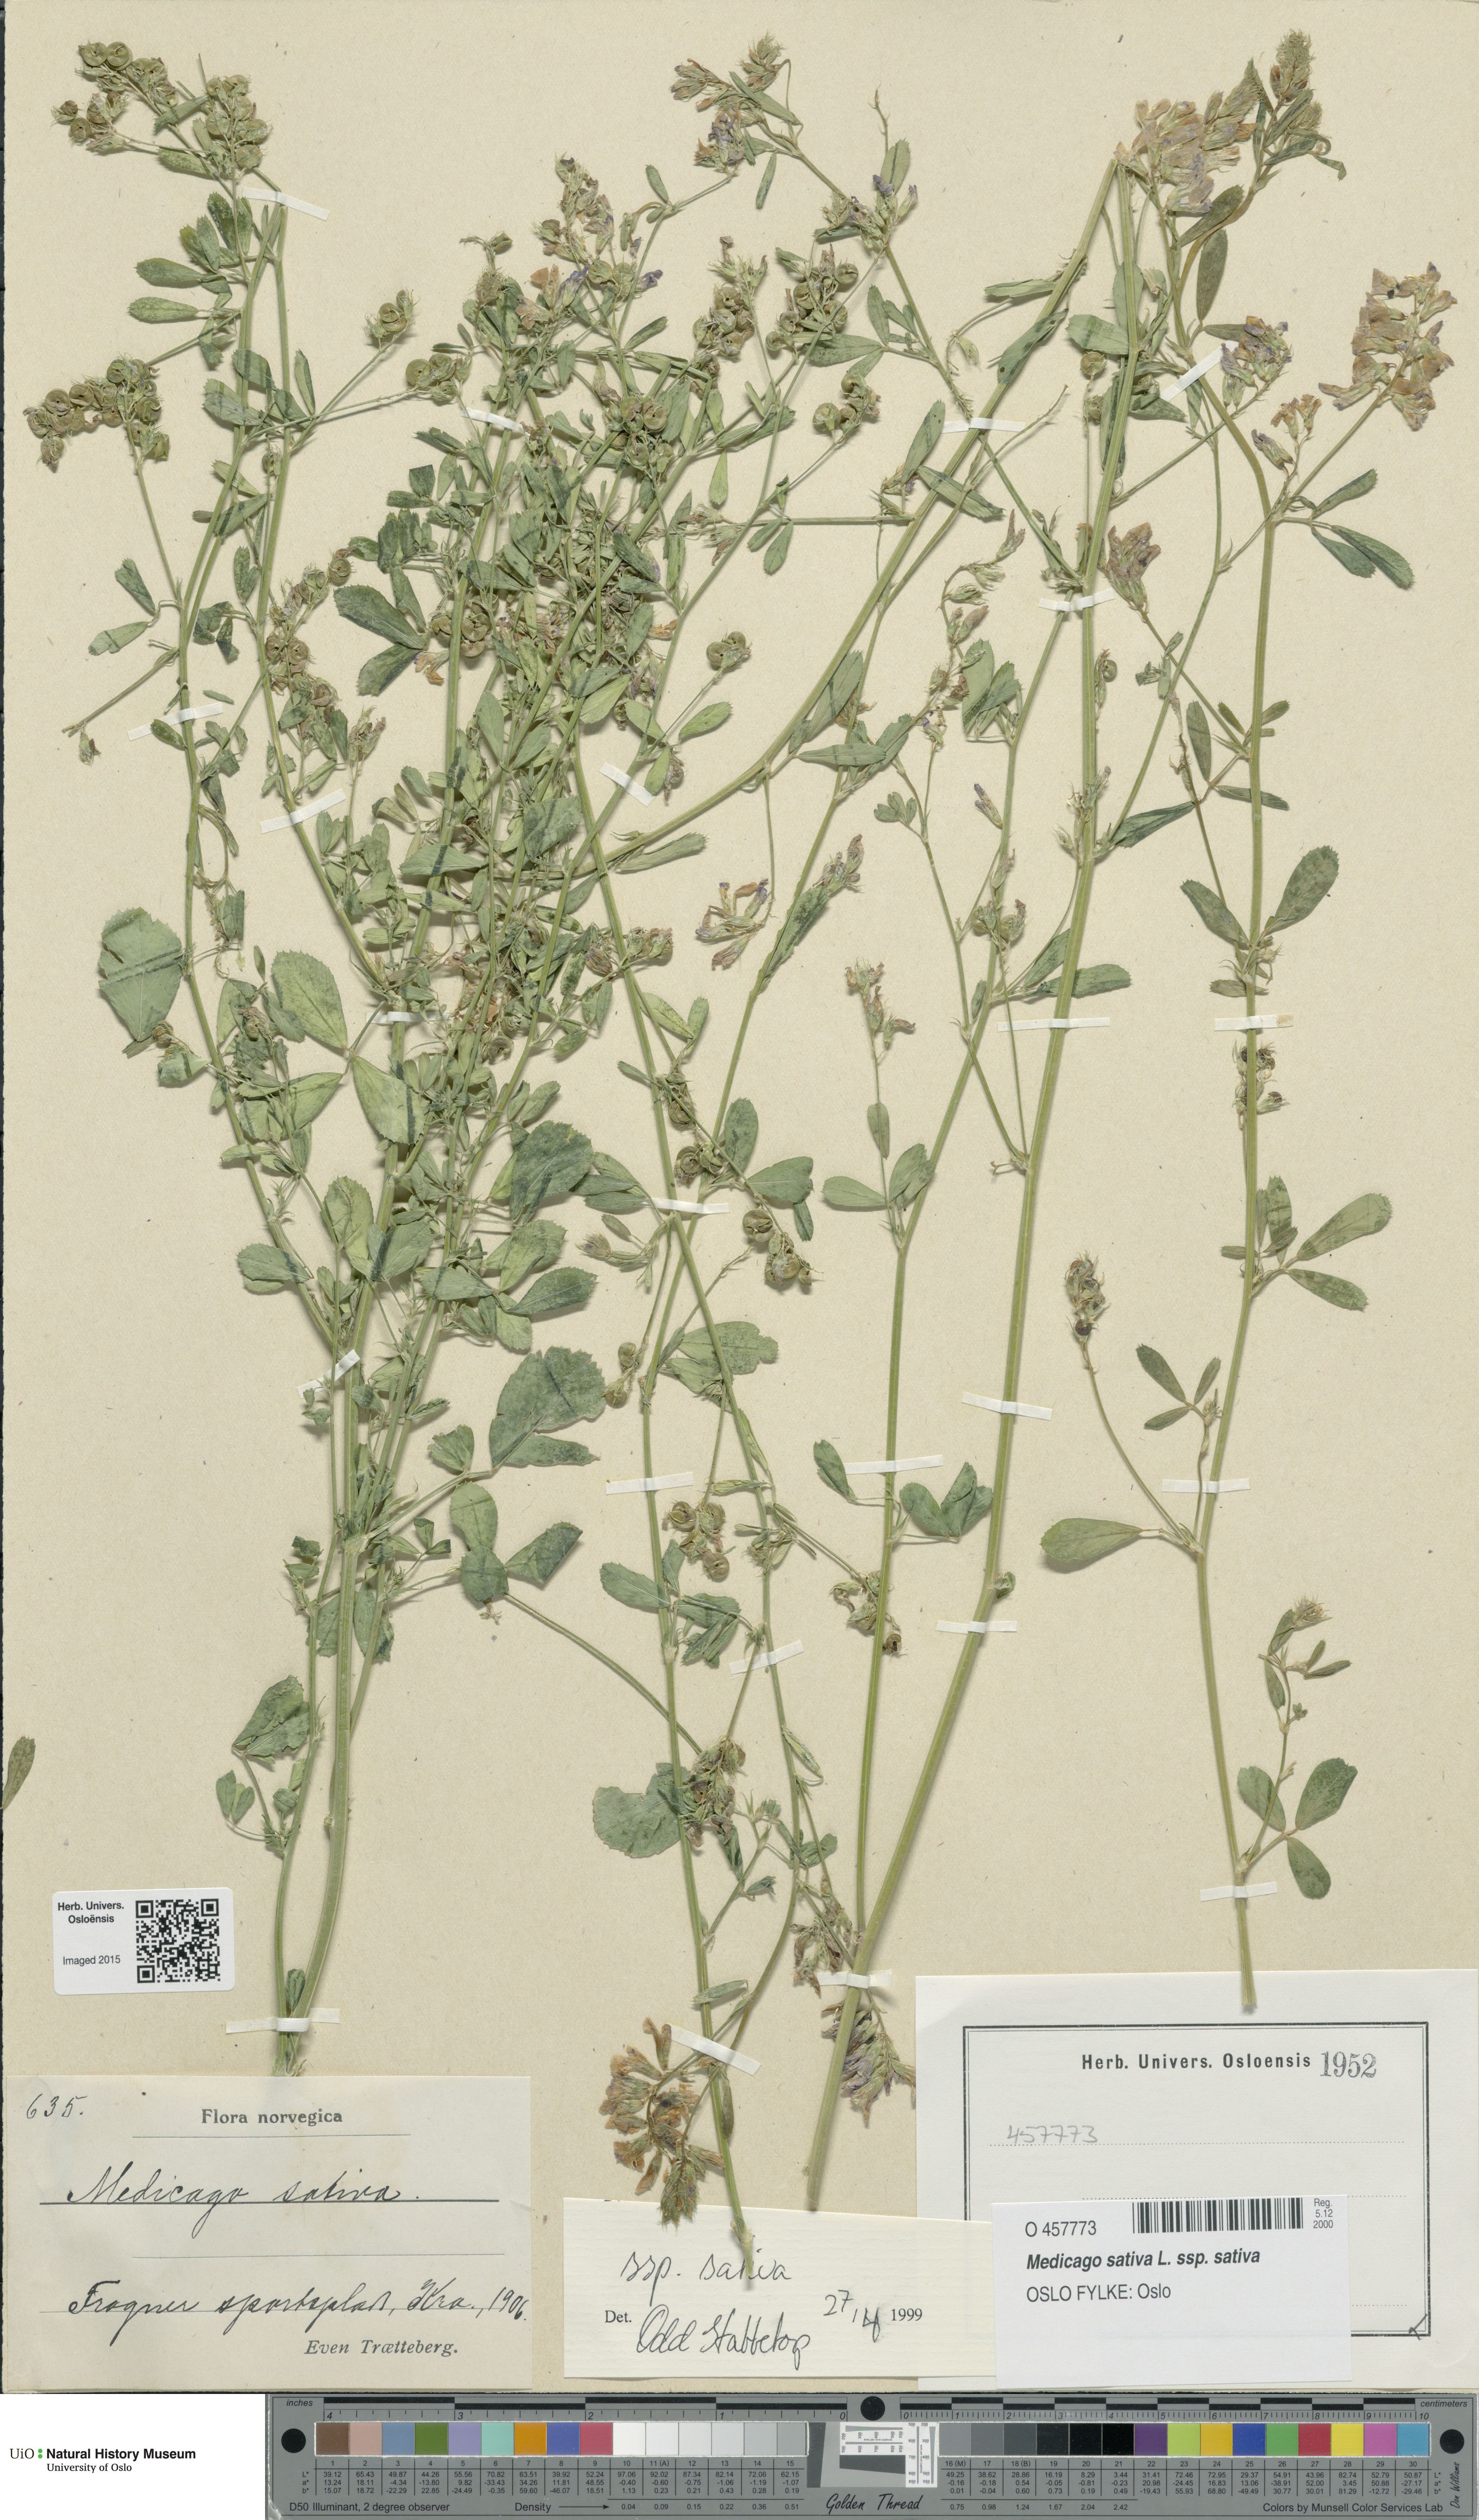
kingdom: Plantae
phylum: Tracheophyta
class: Magnoliopsida
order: Fabales
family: Fabaceae
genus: Medicago
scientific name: Medicago sativa
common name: Alfalfa
